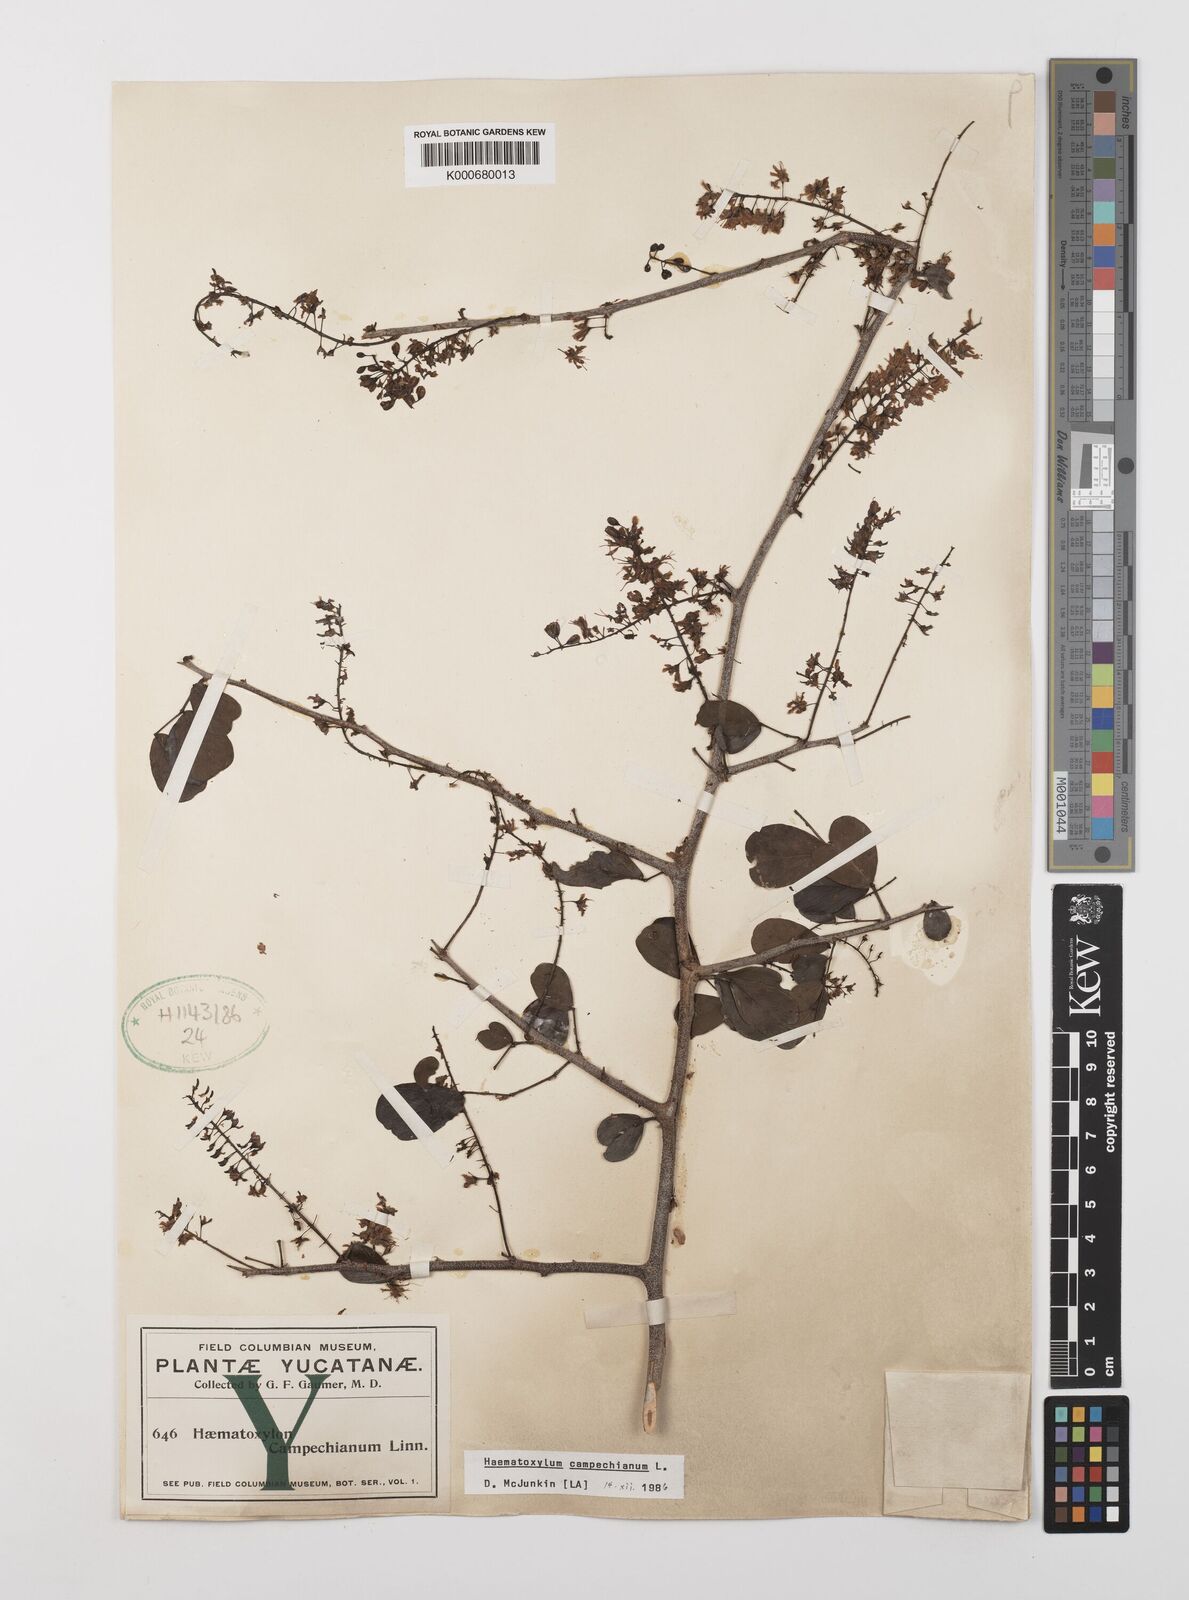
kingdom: Plantae
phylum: Tracheophyta
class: Magnoliopsida
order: Fabales
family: Fabaceae
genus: Haematoxylum
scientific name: Haematoxylum
